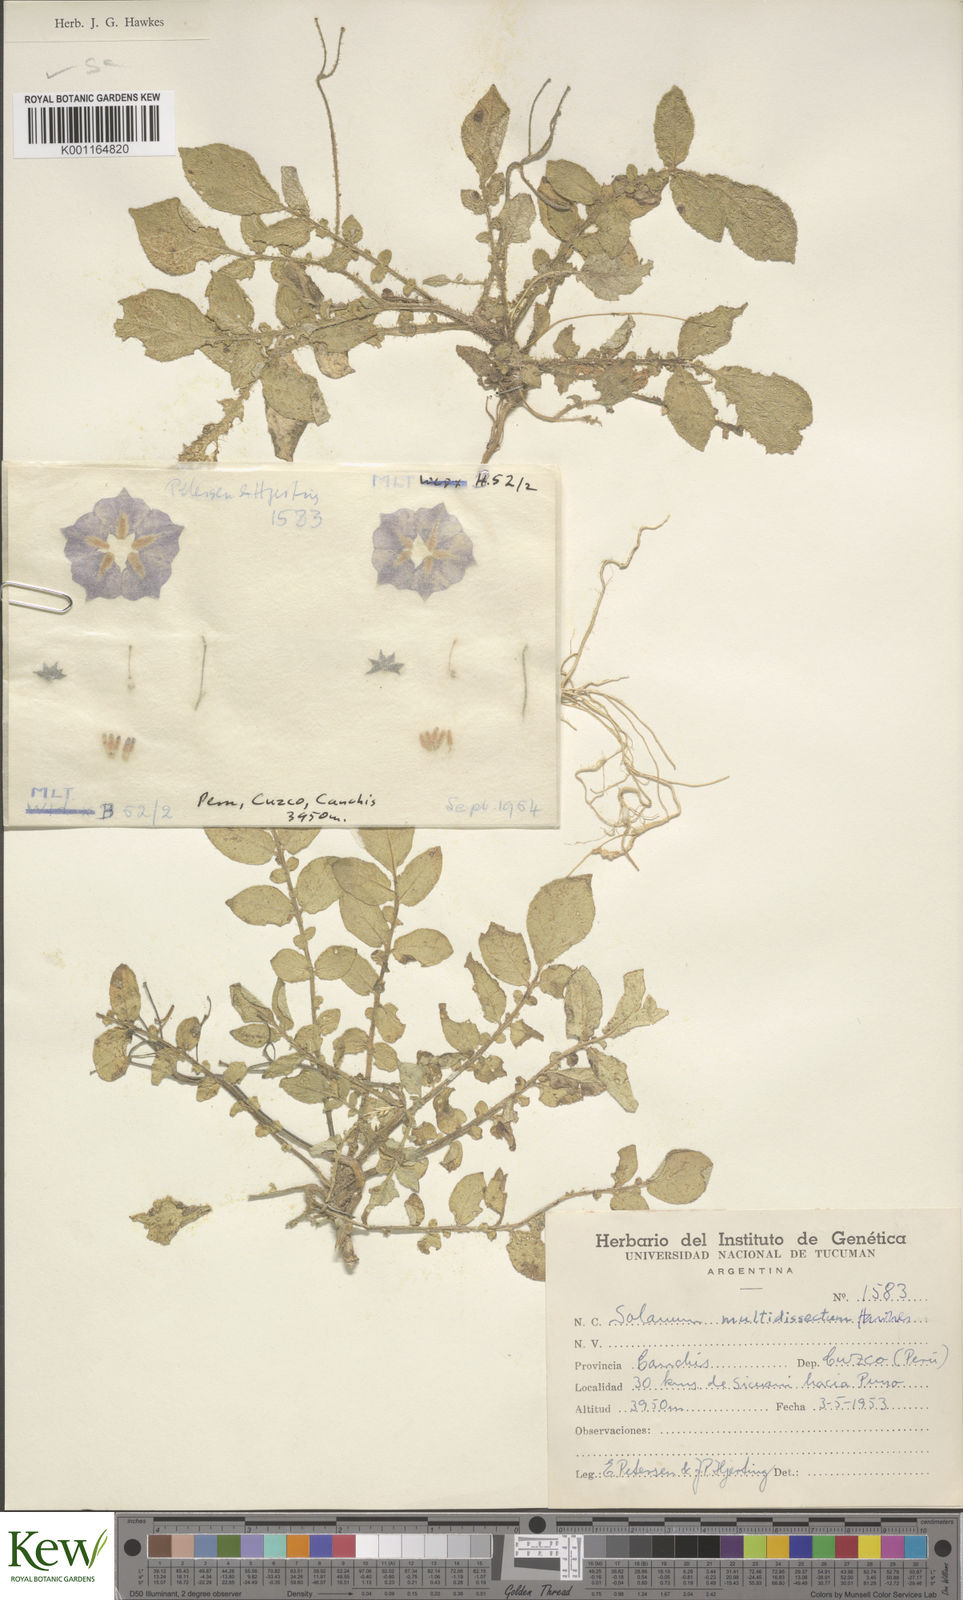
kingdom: Plantae
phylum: Tracheophyta
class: Magnoliopsida
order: Solanales
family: Solanaceae
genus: Solanum
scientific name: Solanum candolleanum
